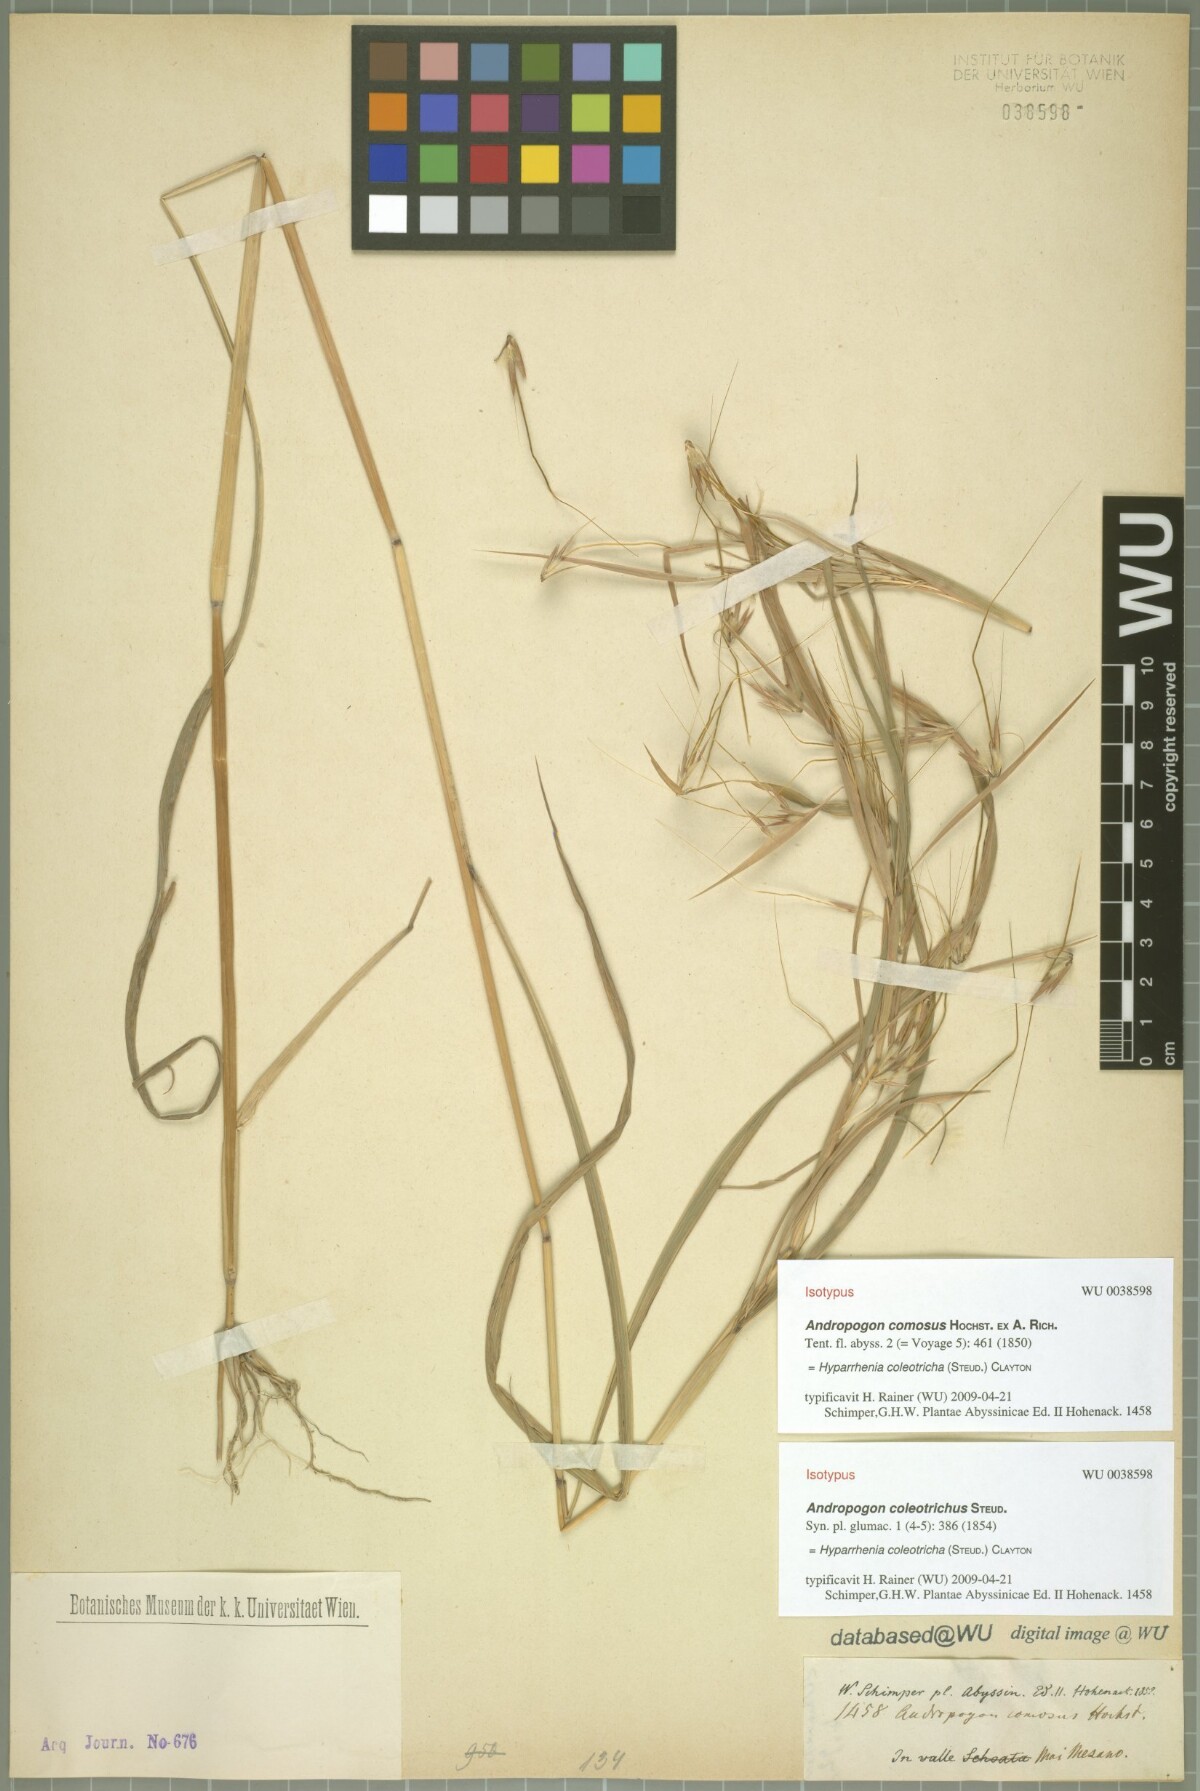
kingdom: Plantae
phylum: Tracheophyta
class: Liliopsida
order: Poales
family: Poaceae
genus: Hyparrhenia
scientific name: Hyparrhenia coleotricha
